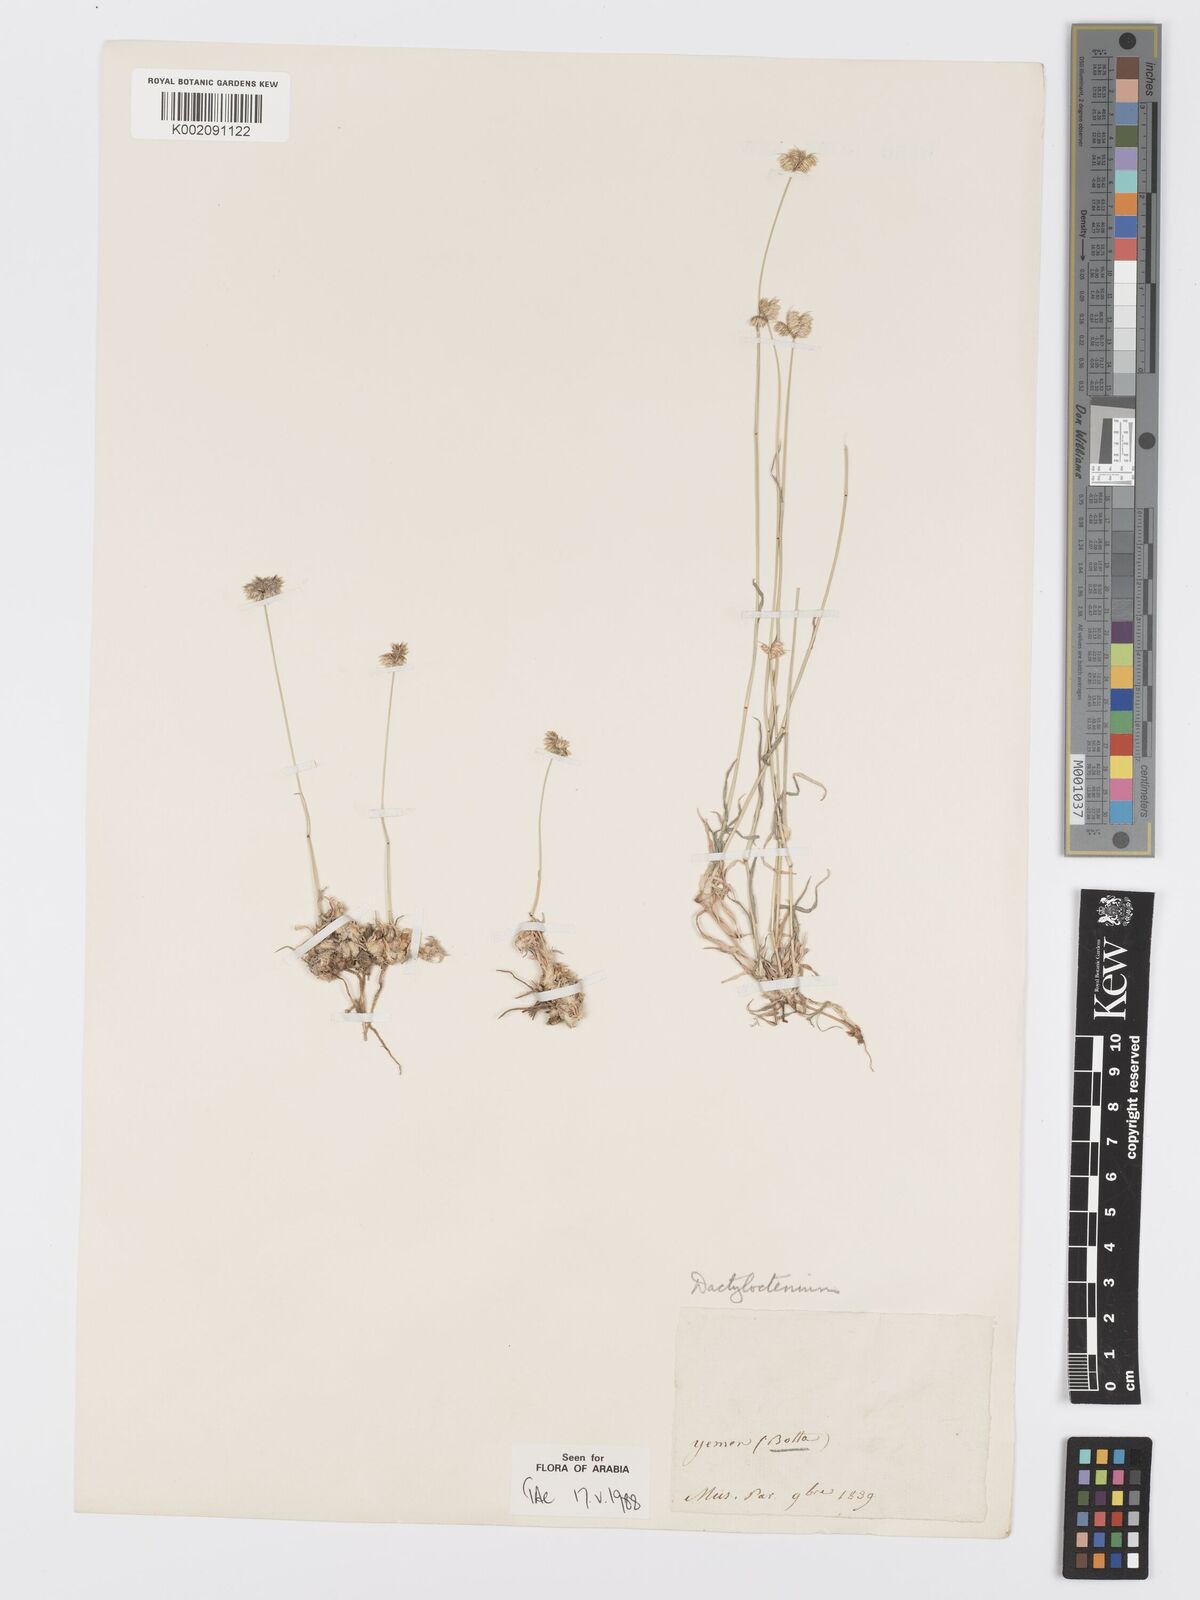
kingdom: Plantae
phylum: Tracheophyta
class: Liliopsida
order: Poales
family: Poaceae
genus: Dactyloctenium
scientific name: Dactyloctenium scindicum
